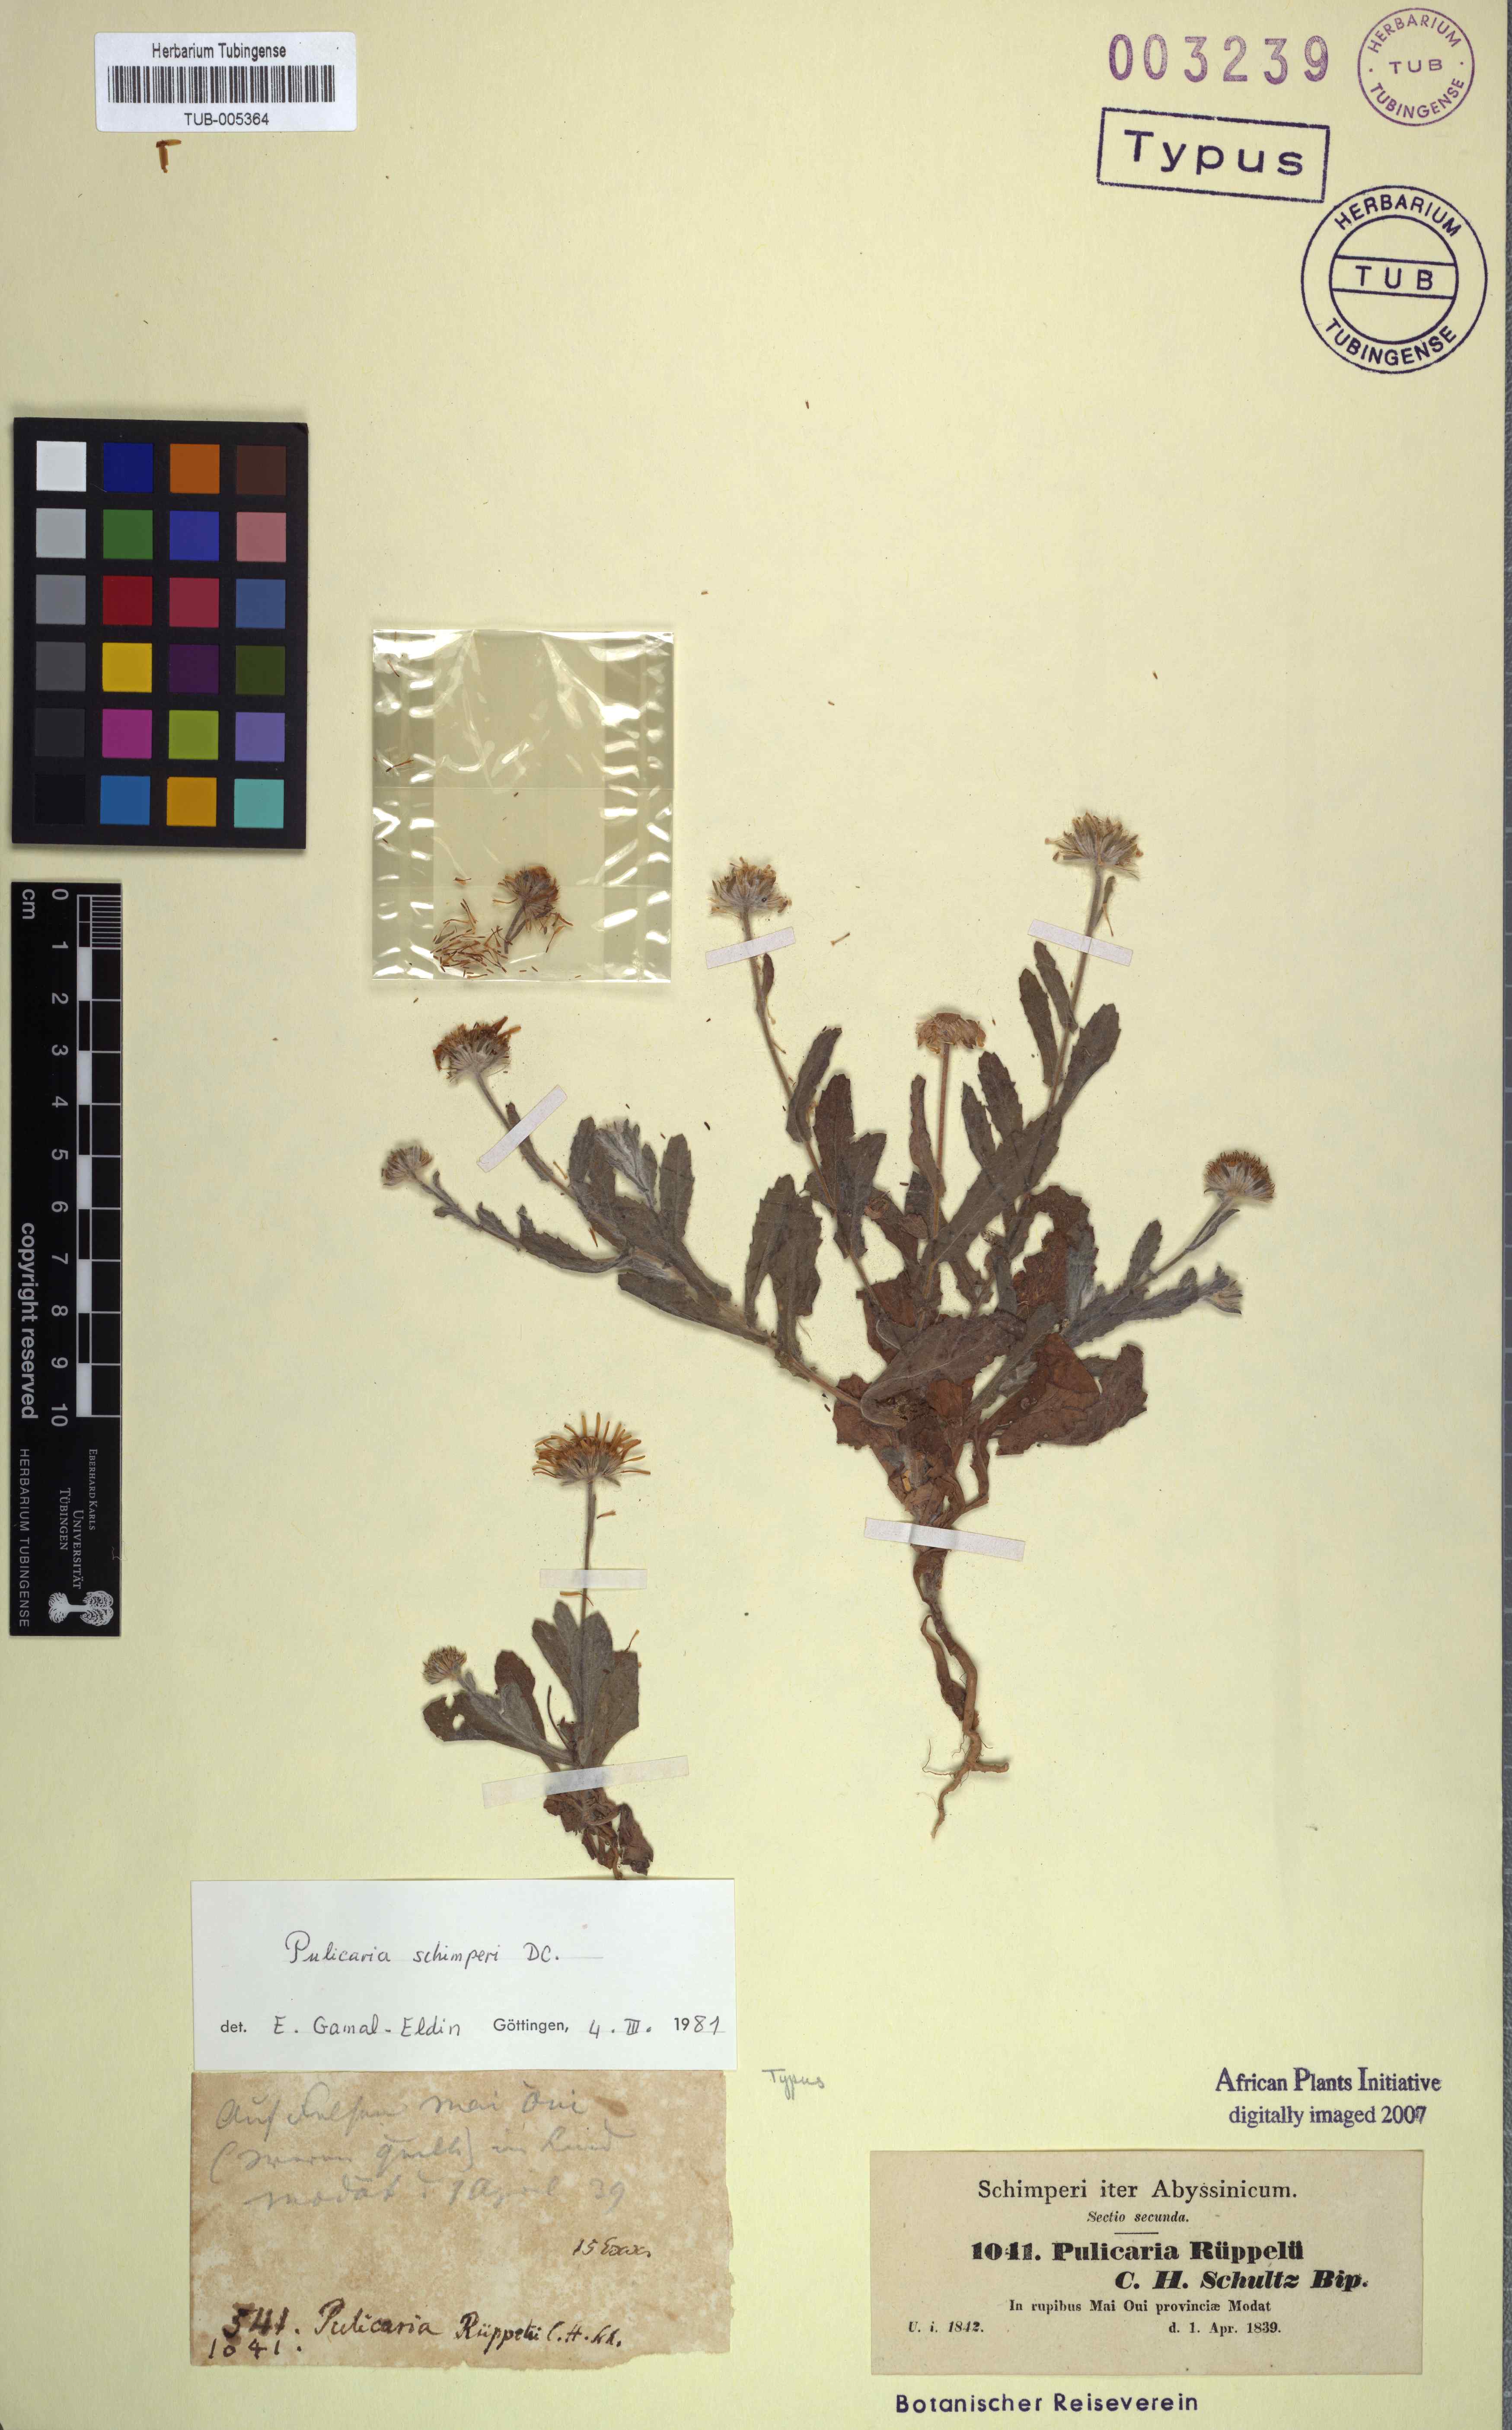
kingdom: Plantae
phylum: Tracheophyta
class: Magnoliopsida
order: Asterales
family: Asteraceae
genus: Pulicaria
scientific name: Pulicaria schimperi
